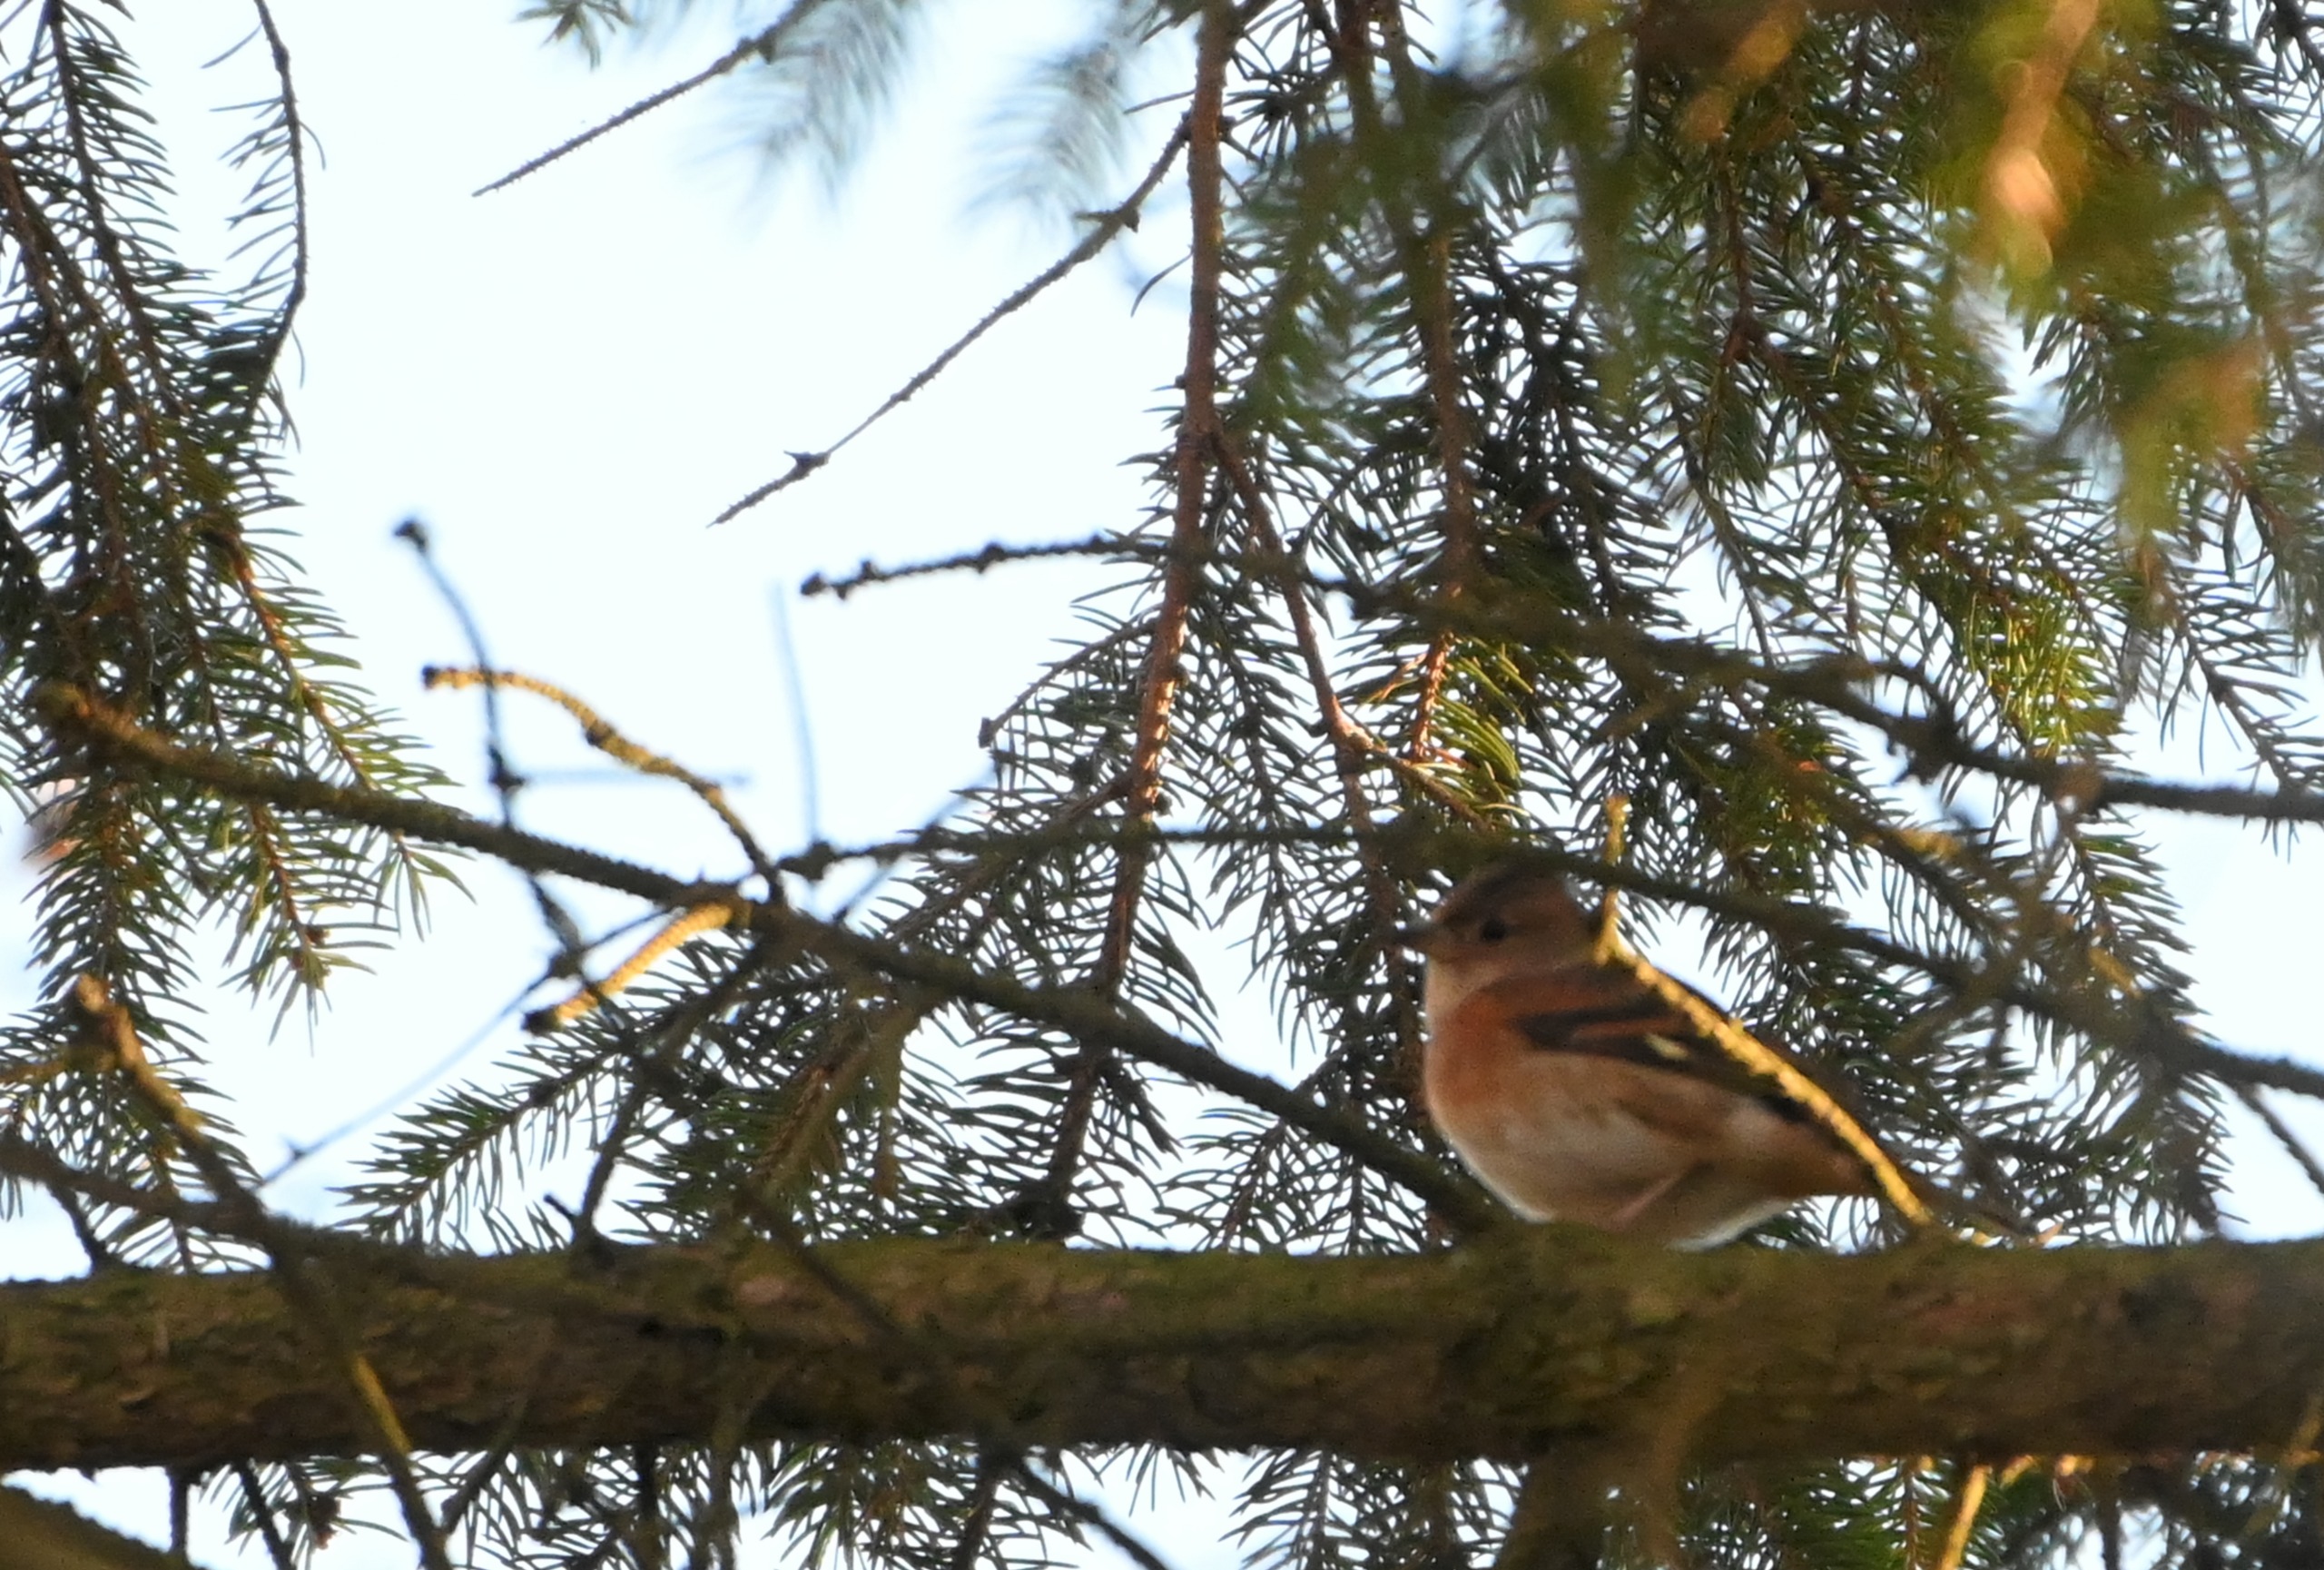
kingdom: Animalia
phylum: Chordata
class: Aves
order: Passeriformes
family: Fringillidae
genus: Fringilla
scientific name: Fringilla montifringilla
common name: Kvækerfinke
